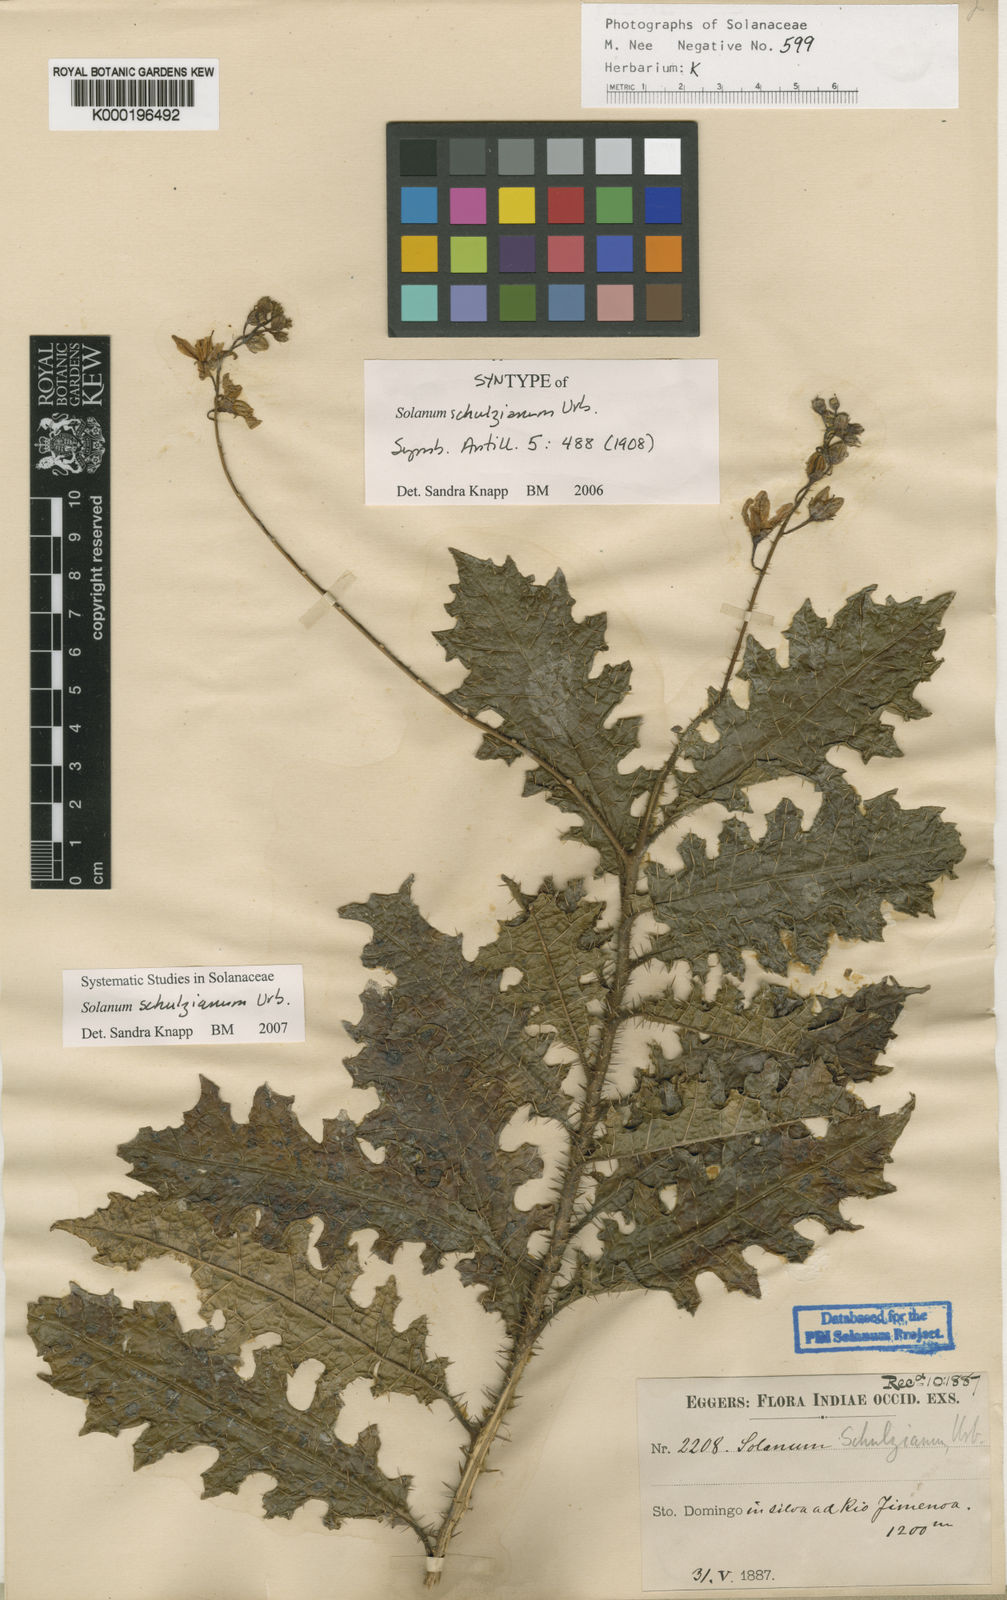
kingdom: Plantae
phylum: Tracheophyta
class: Magnoliopsida
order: Solanales
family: Solanaceae
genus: Solanum
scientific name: Solanum schulzianum
